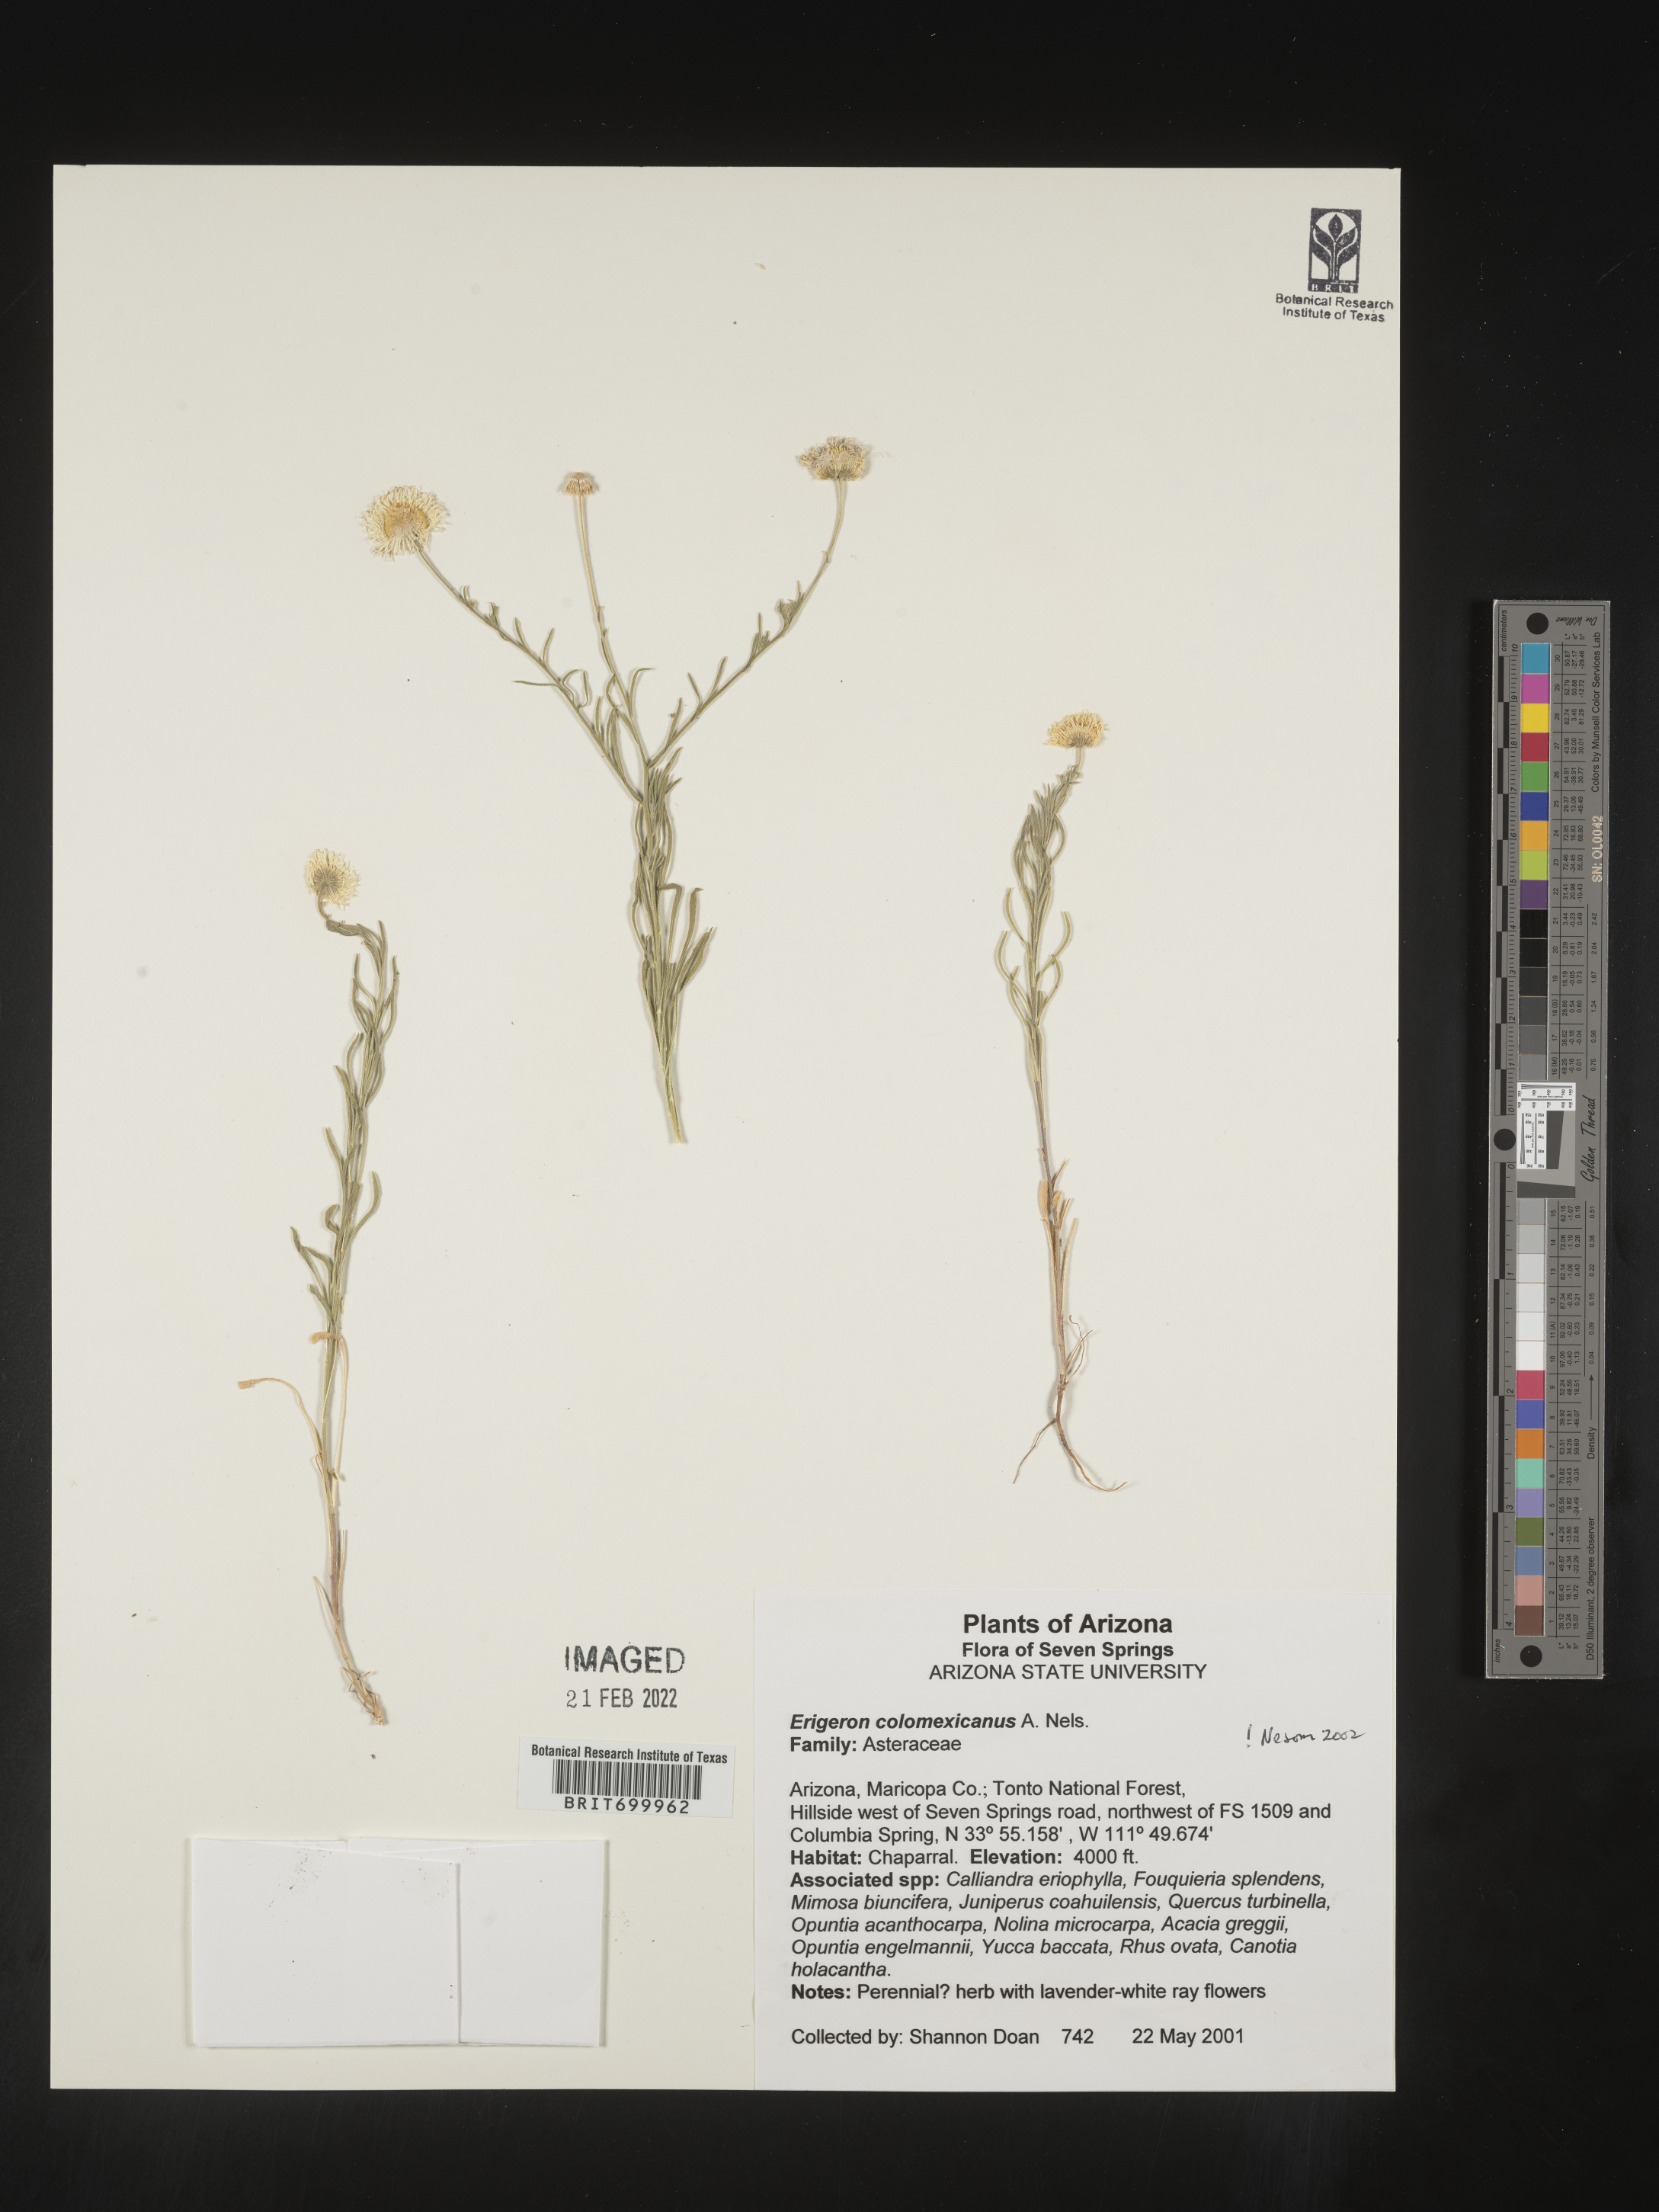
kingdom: Plantae
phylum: Tracheophyta
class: Magnoliopsida
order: Asterales
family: Asteraceae
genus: Erigeron
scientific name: Erigeron tracyi
